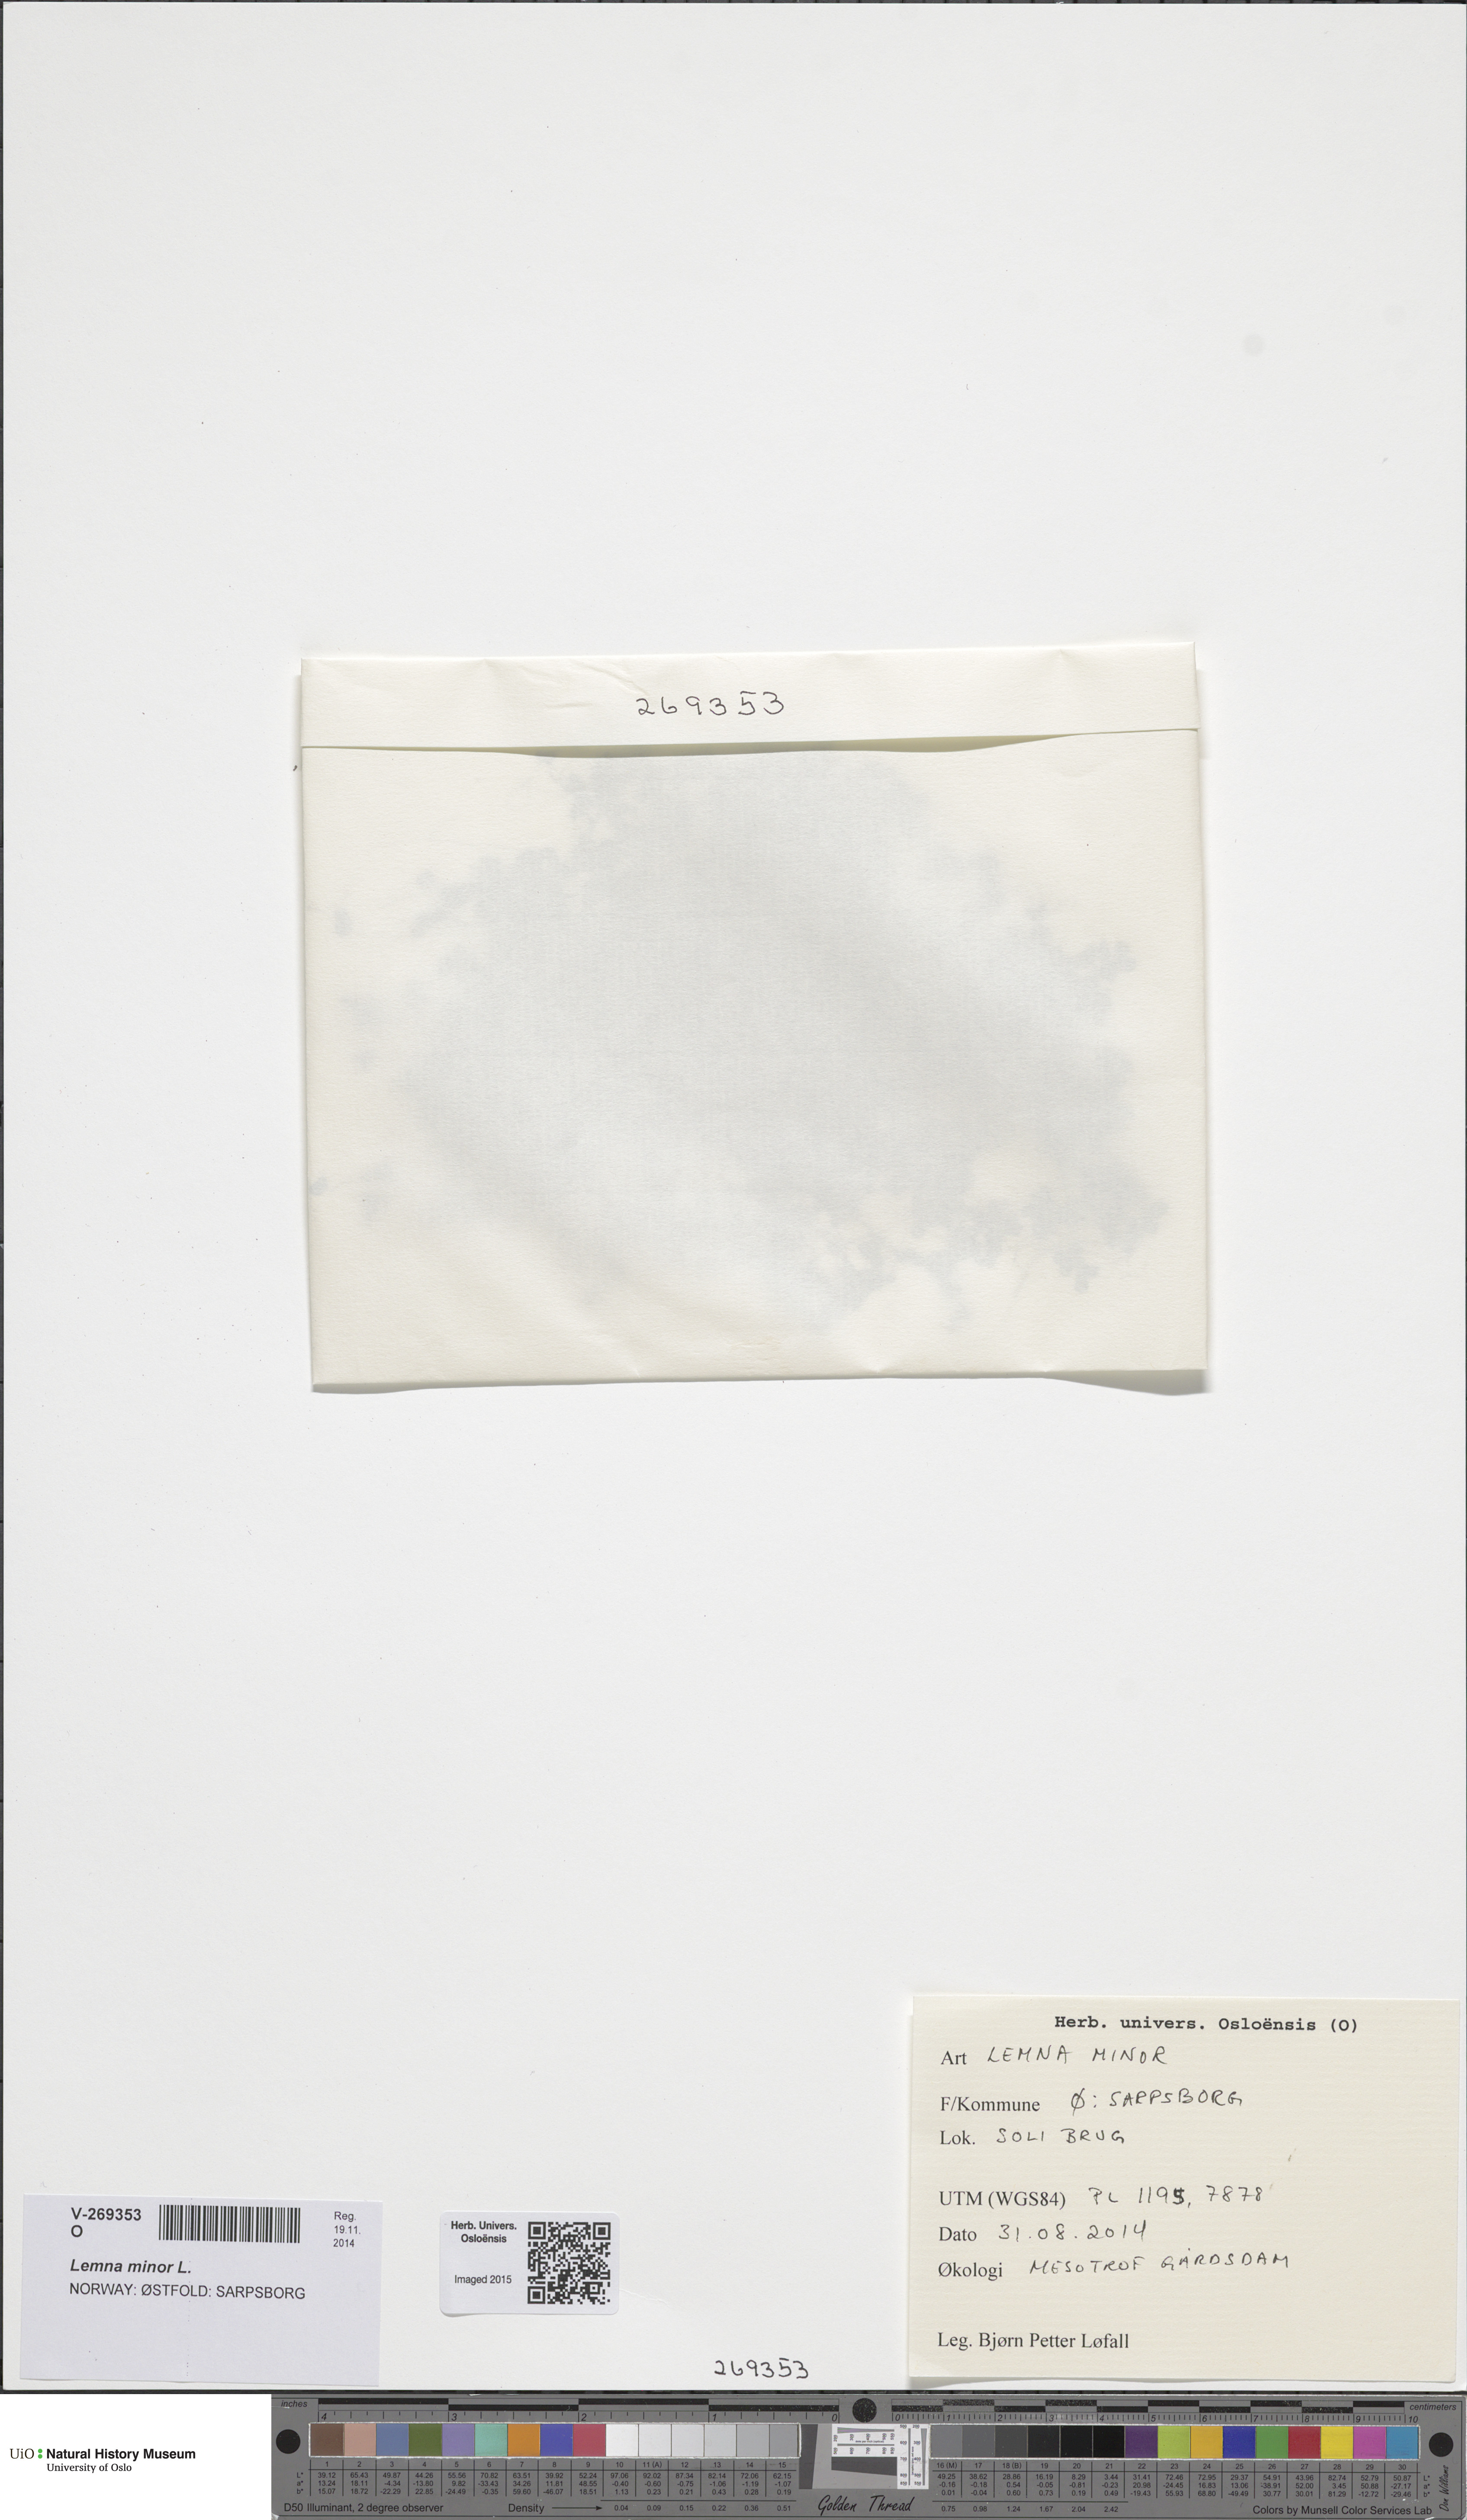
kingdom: Plantae
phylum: Tracheophyta
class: Liliopsida
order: Alismatales
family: Araceae
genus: Lemna
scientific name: Lemna minor
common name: Common duckweed
